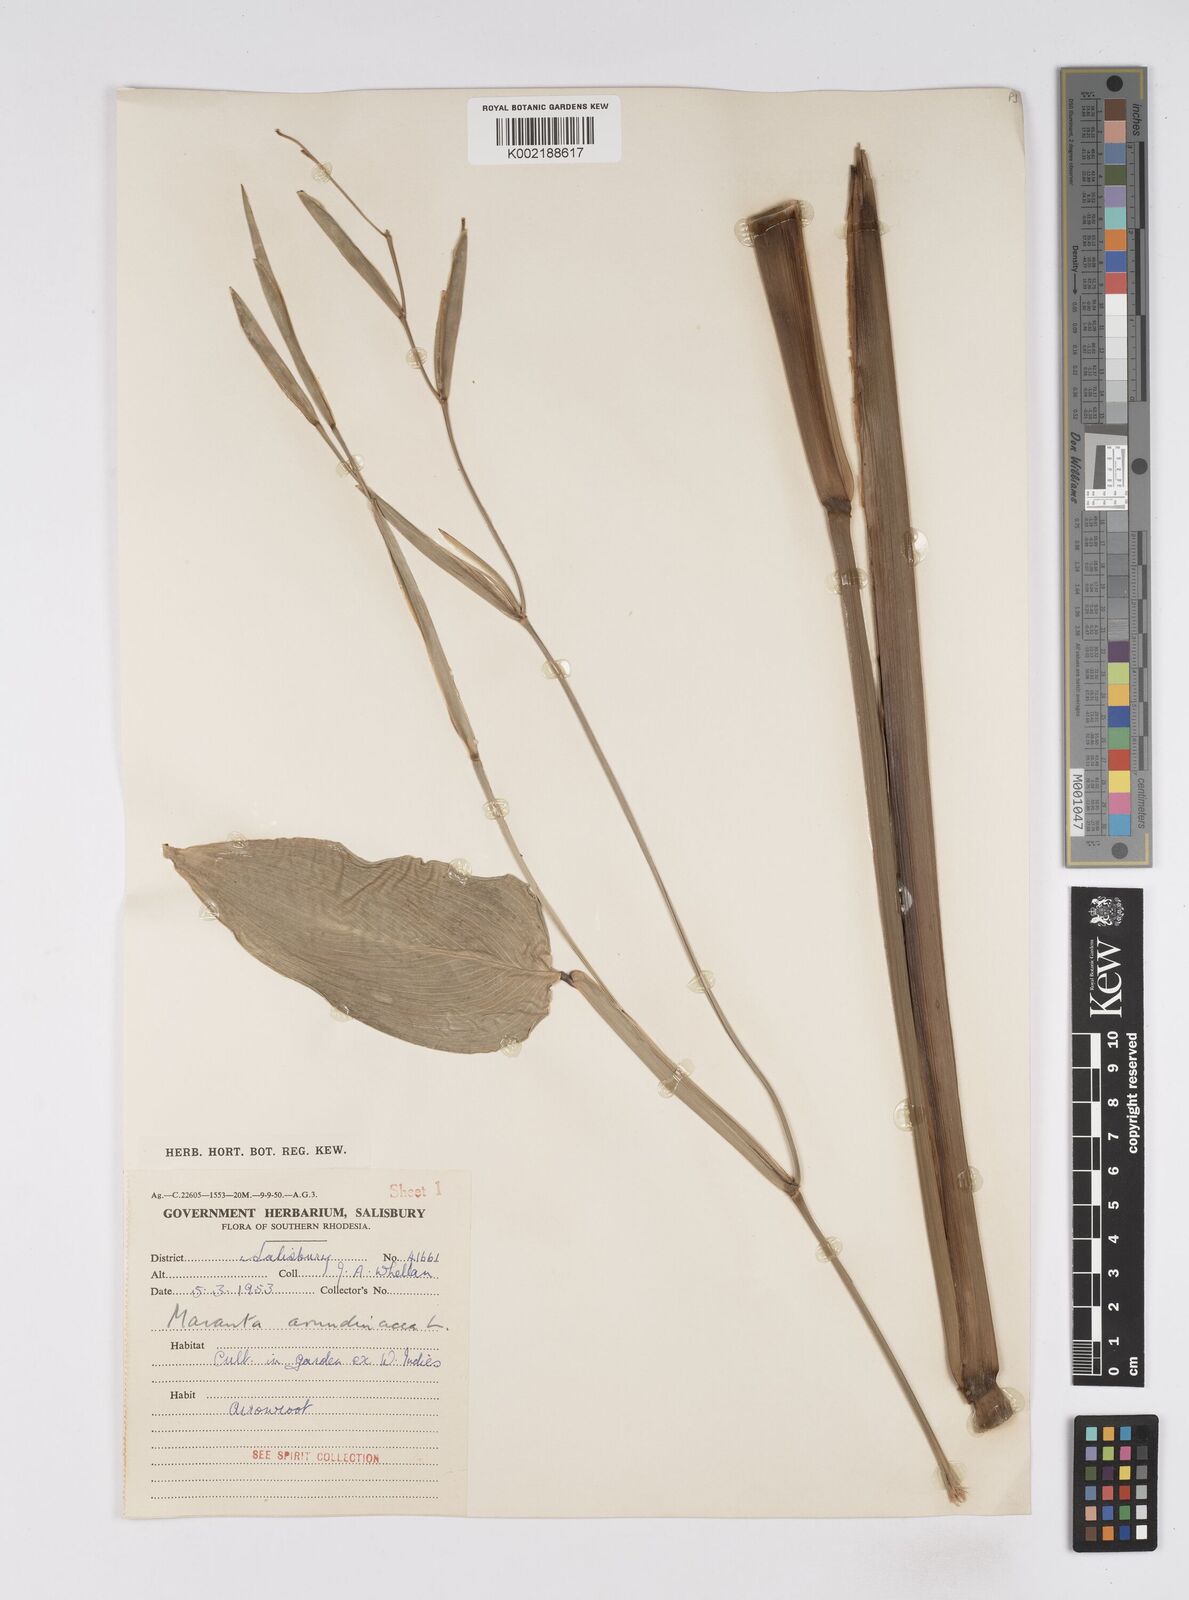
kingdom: Plantae
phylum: Tracheophyta
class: Liliopsida
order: Zingiberales
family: Marantaceae
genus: Maranta
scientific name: Maranta arundinacea
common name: Arrowroot
